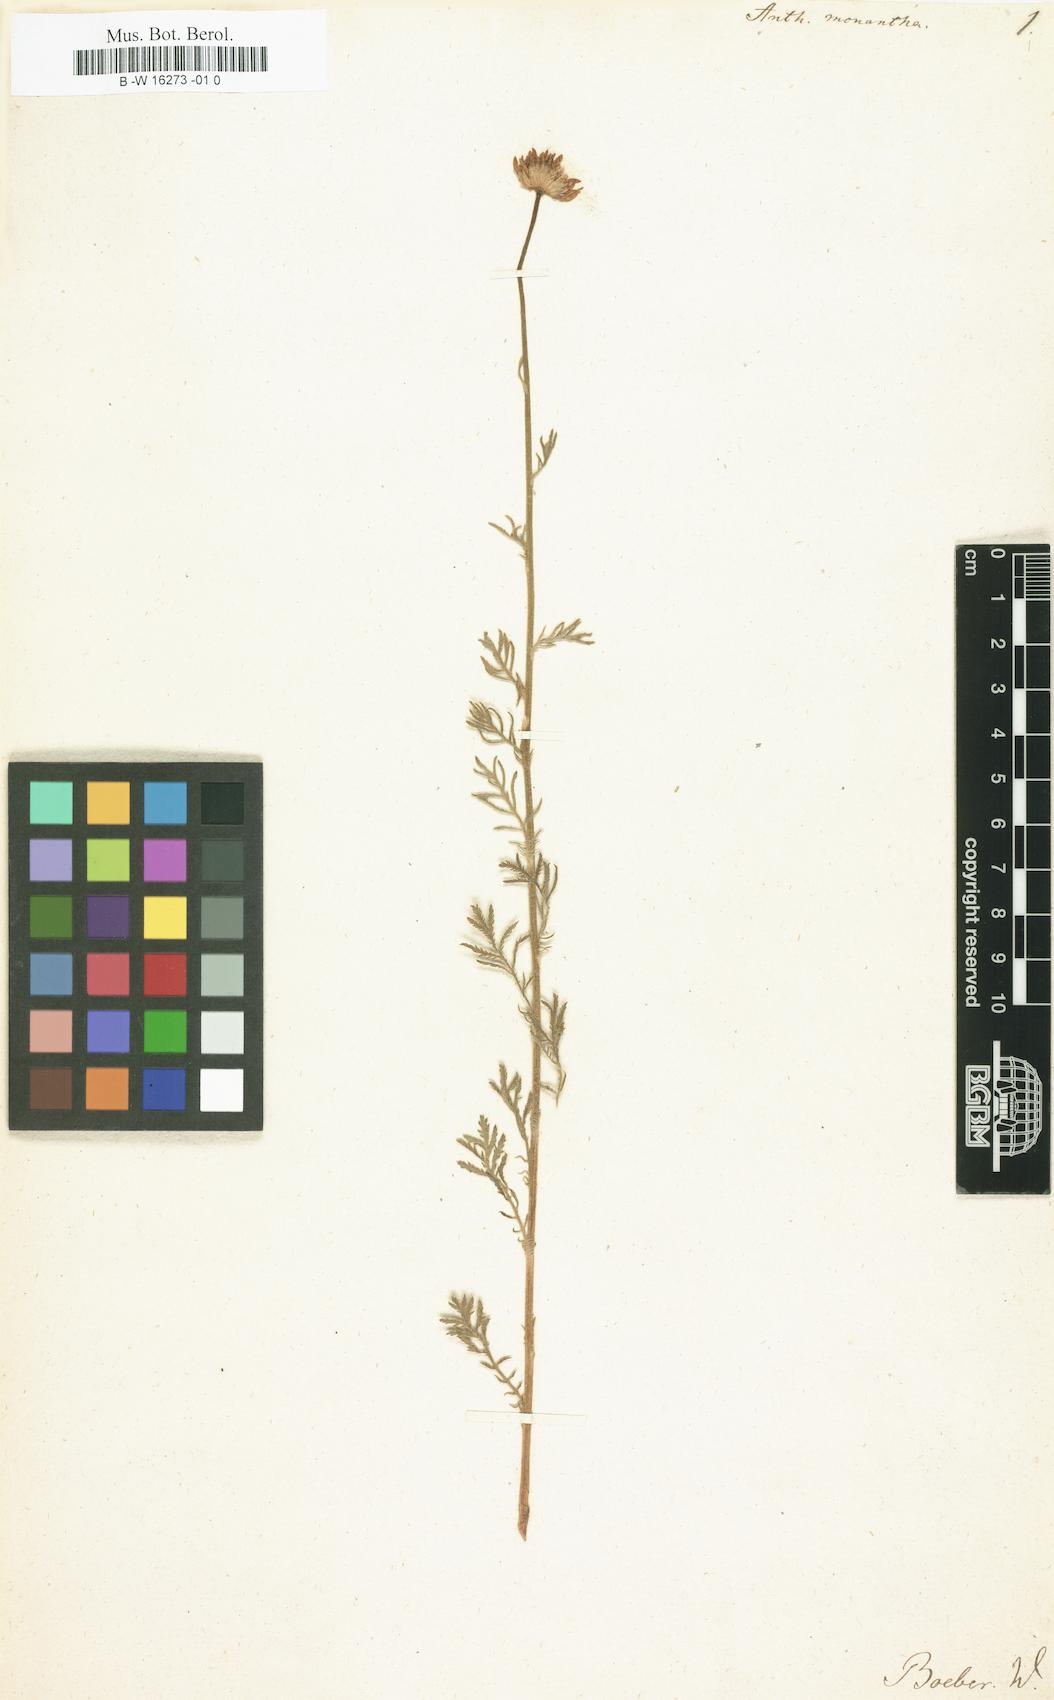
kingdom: Plantae
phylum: Tracheophyta
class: Magnoliopsida
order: Asterales
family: Asteraceae
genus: Cota
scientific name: Cota monantha
